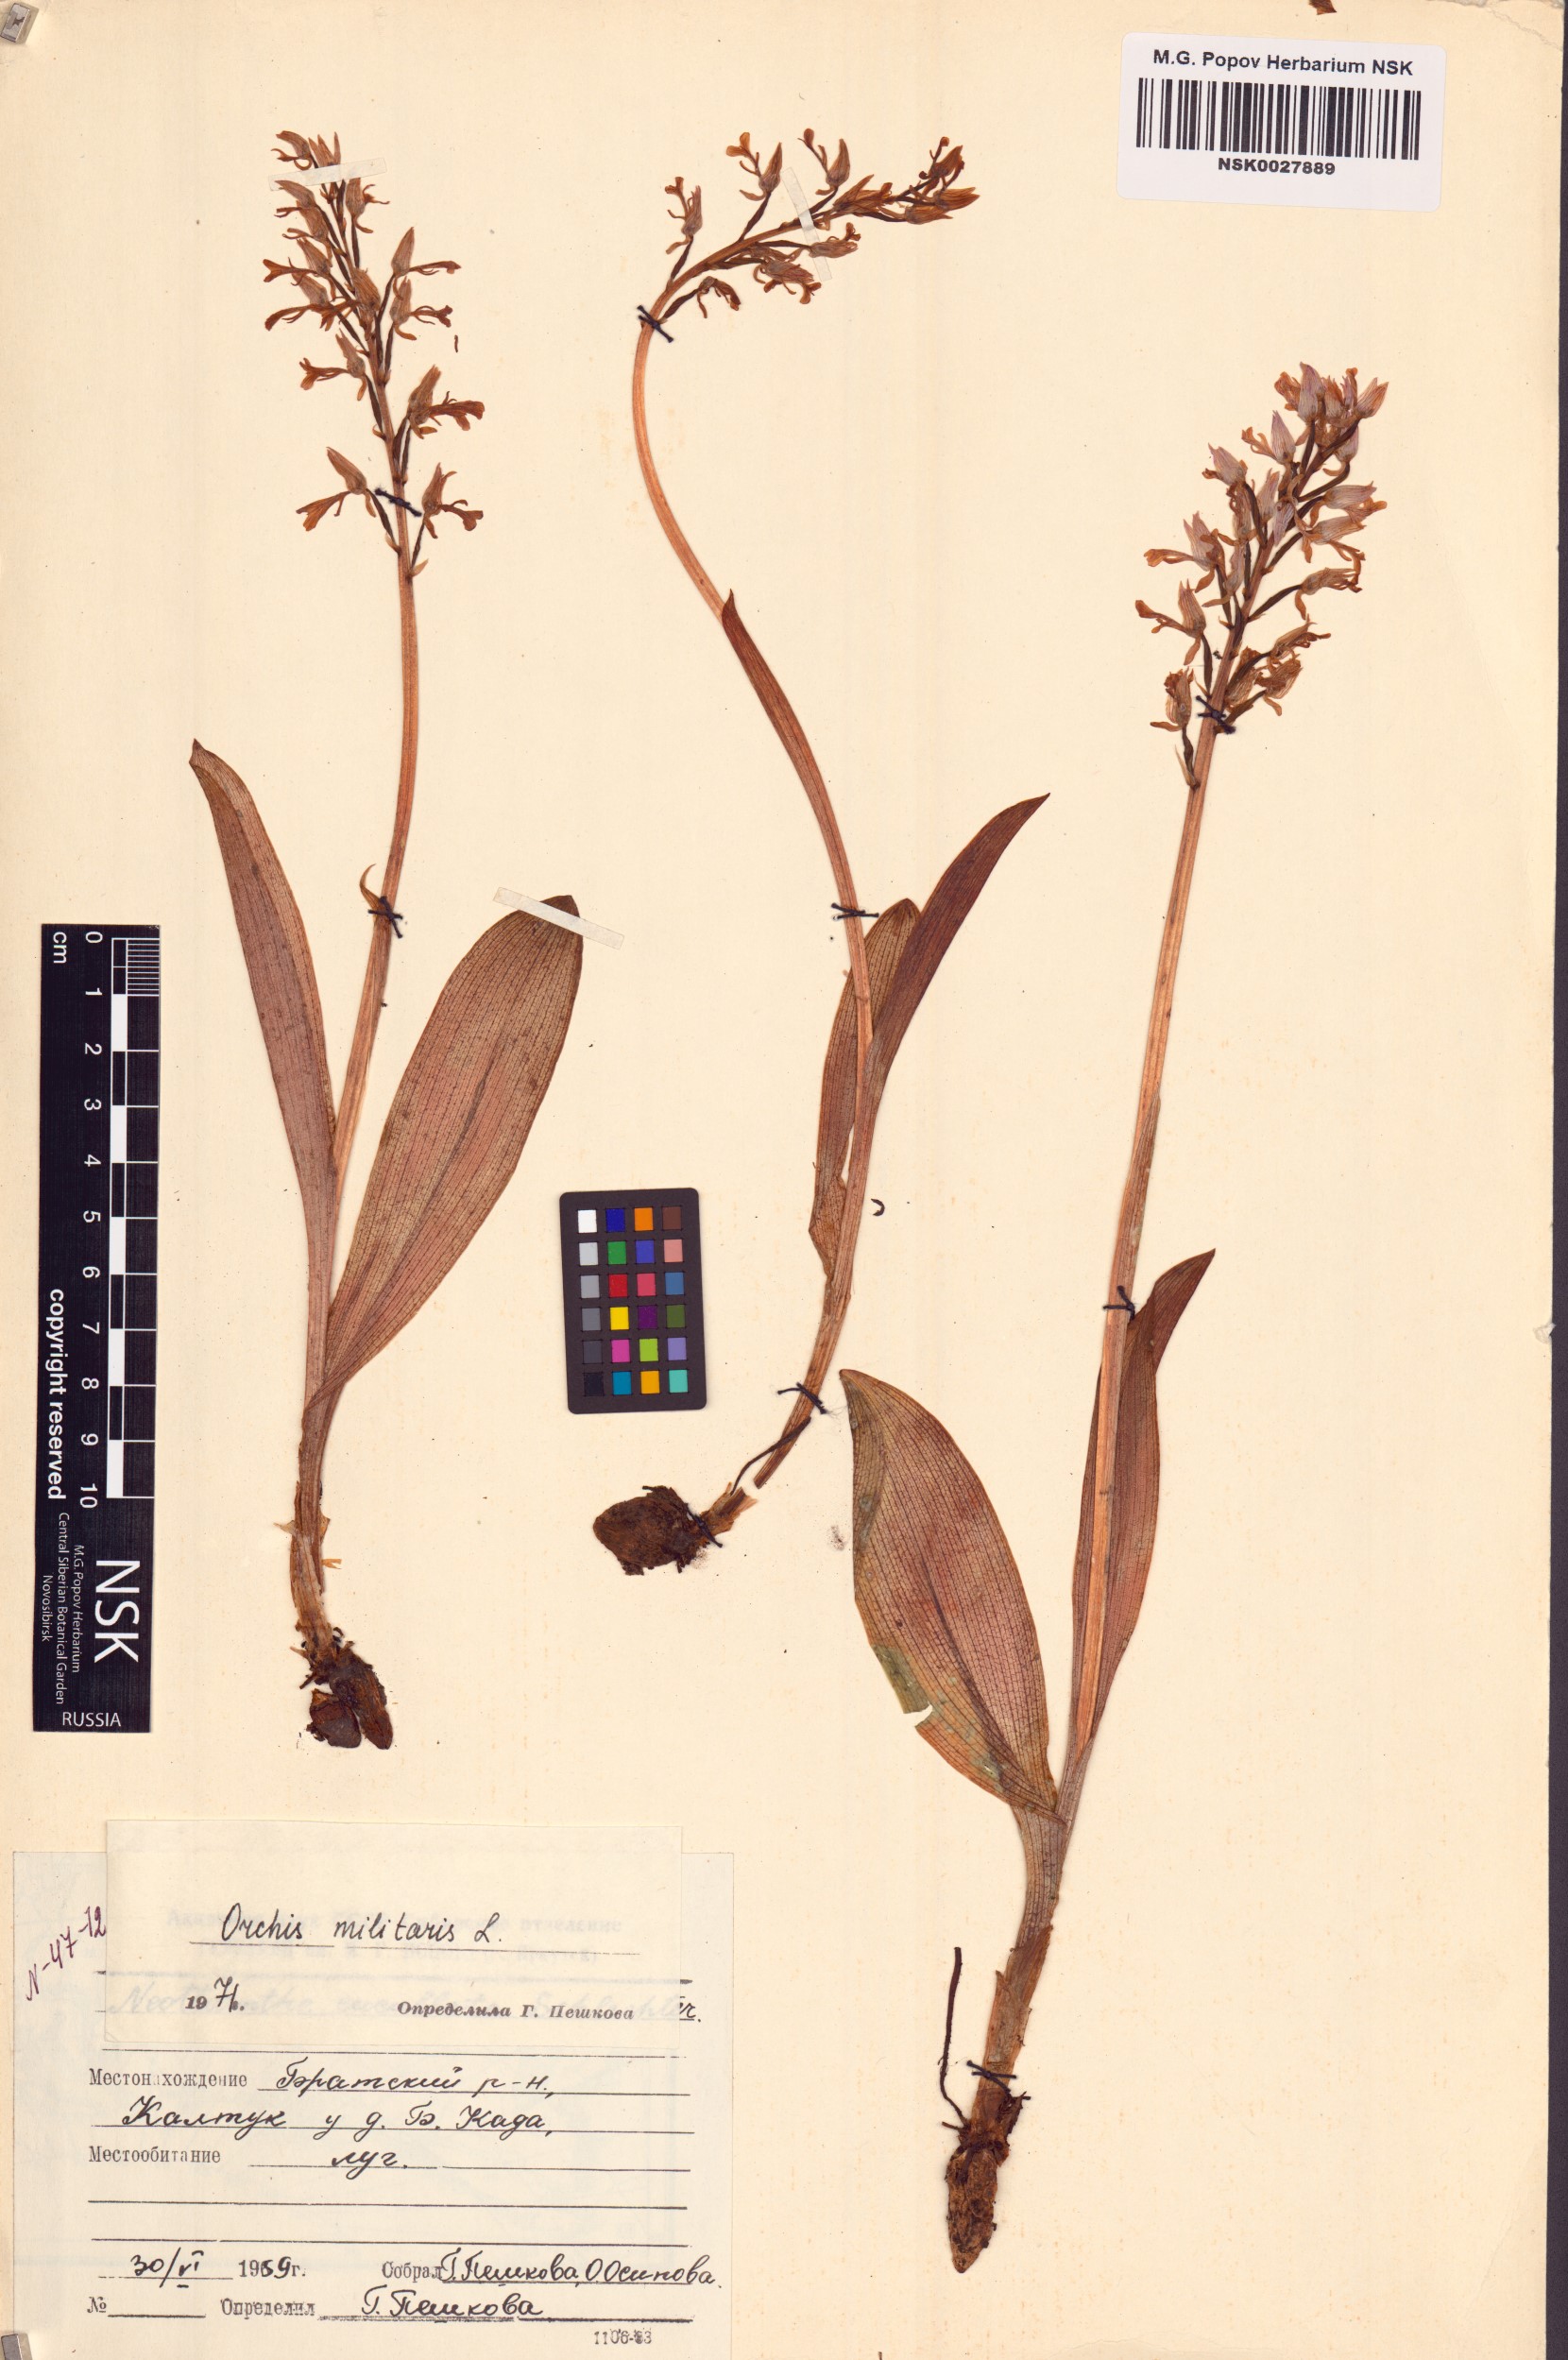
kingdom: Plantae
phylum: Tracheophyta
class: Liliopsida
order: Asparagales
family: Orchidaceae
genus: Orchis
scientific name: Orchis militaris
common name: Military orchid
